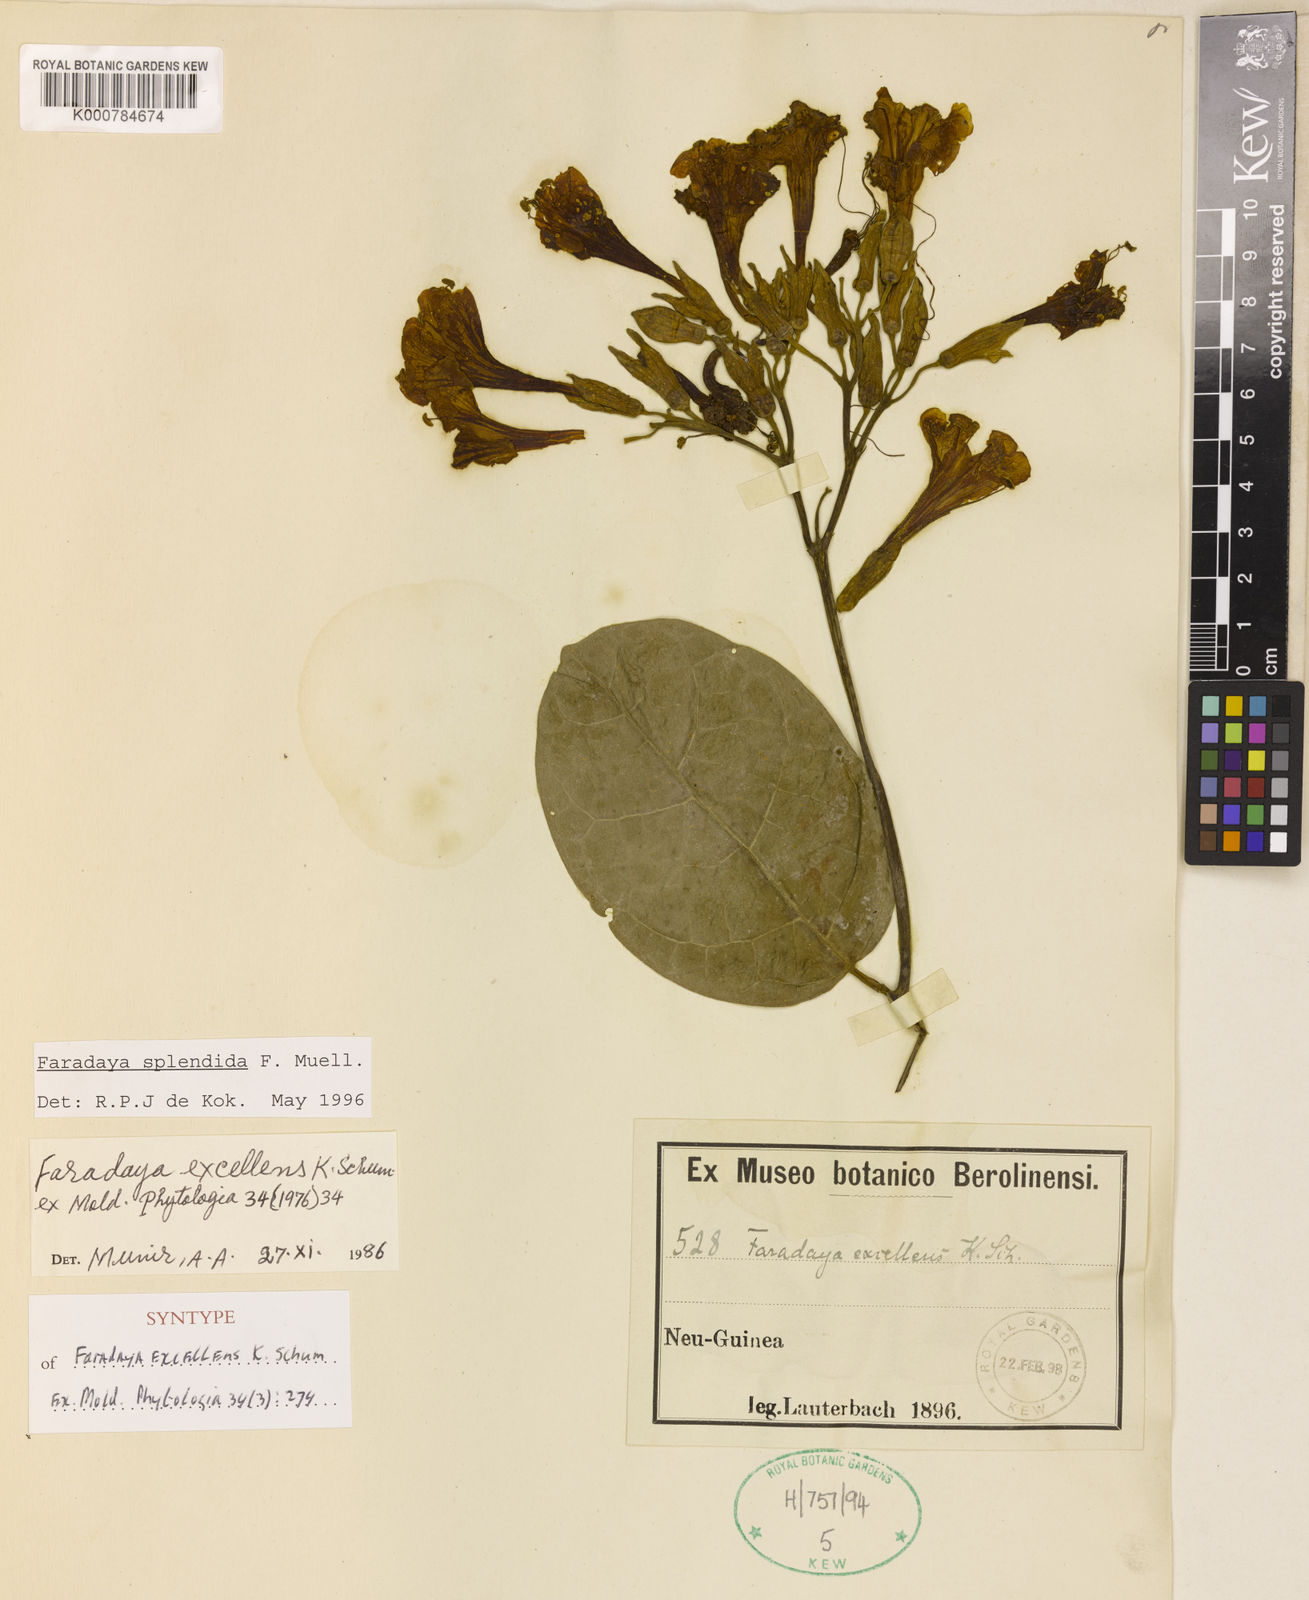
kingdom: Plantae
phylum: Tracheophyta
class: Magnoliopsida
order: Lamiales
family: Lamiaceae
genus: Oxera
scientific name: Oxera
